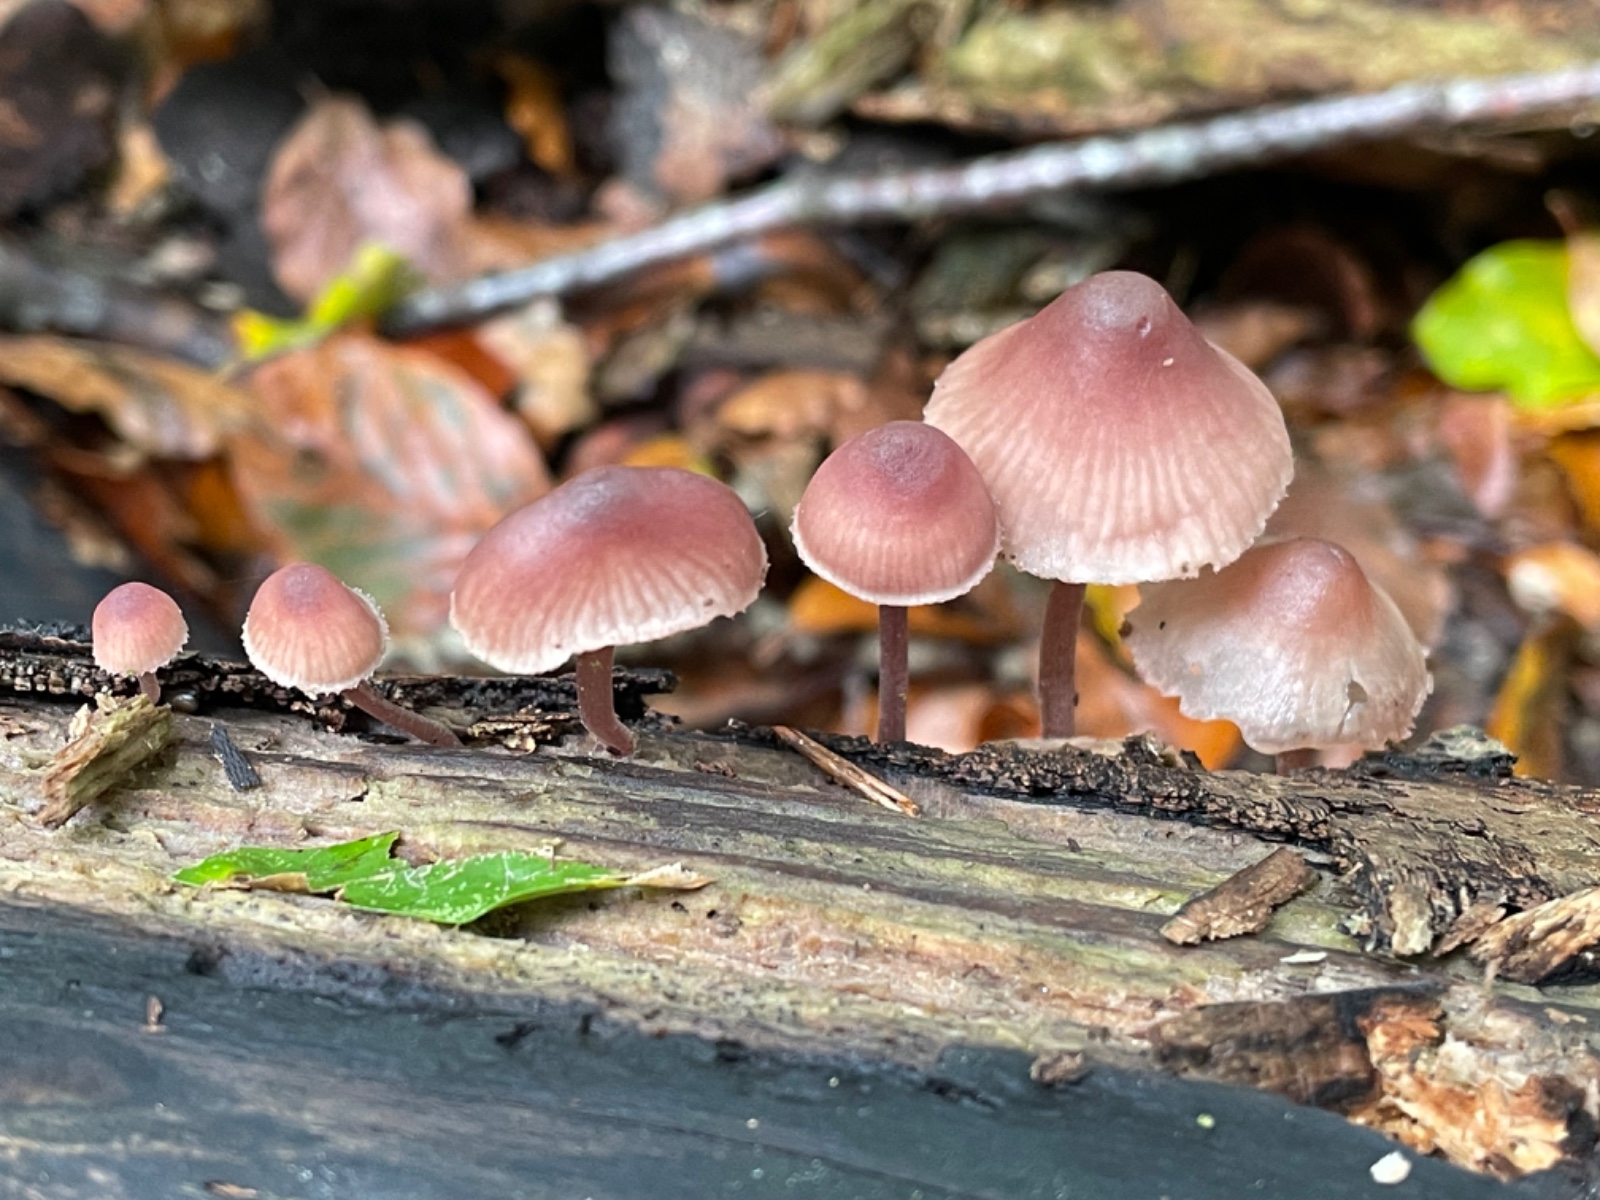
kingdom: Fungi
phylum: Basidiomycota
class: Agaricomycetes
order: Agaricales
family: Mycenaceae
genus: Mycena
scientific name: Mycena haematopus
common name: blødende huesvamp
